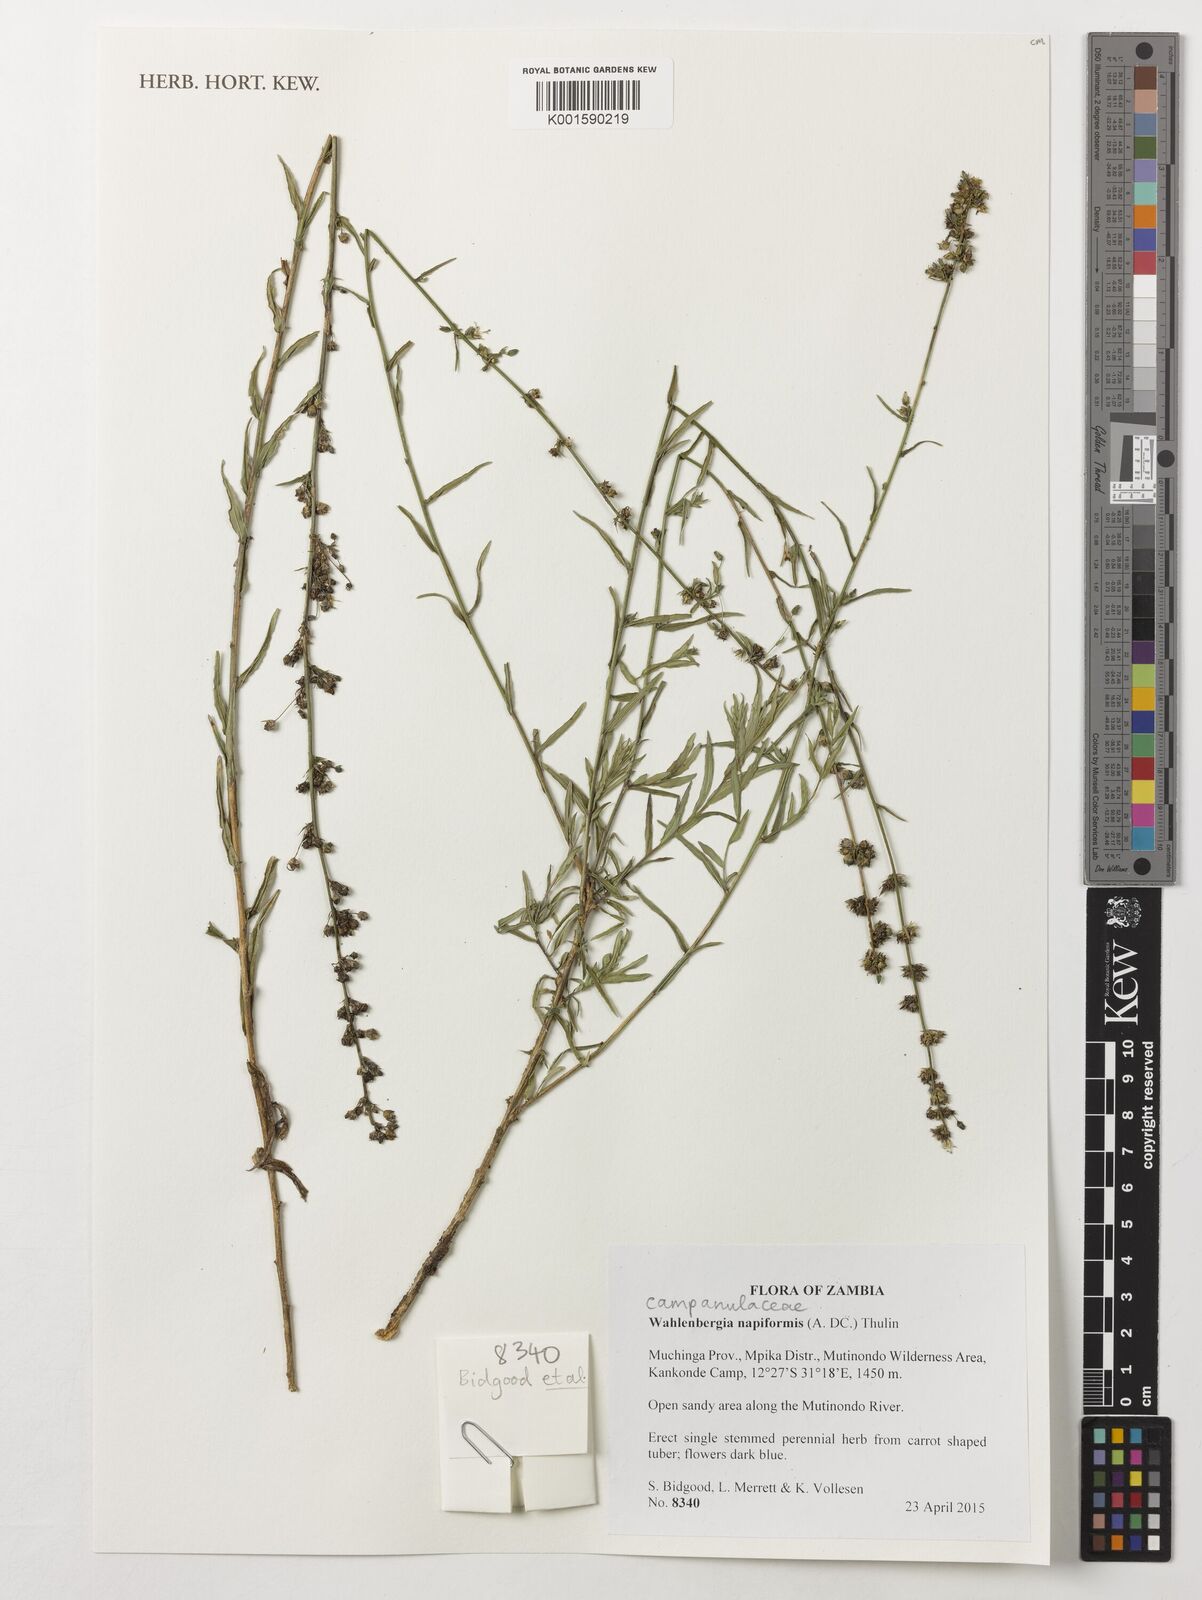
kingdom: Plantae
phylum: Tracheophyta
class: Magnoliopsida
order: Asterales
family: Campanulaceae
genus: Wahlenbergia
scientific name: Wahlenbergia napiformis
